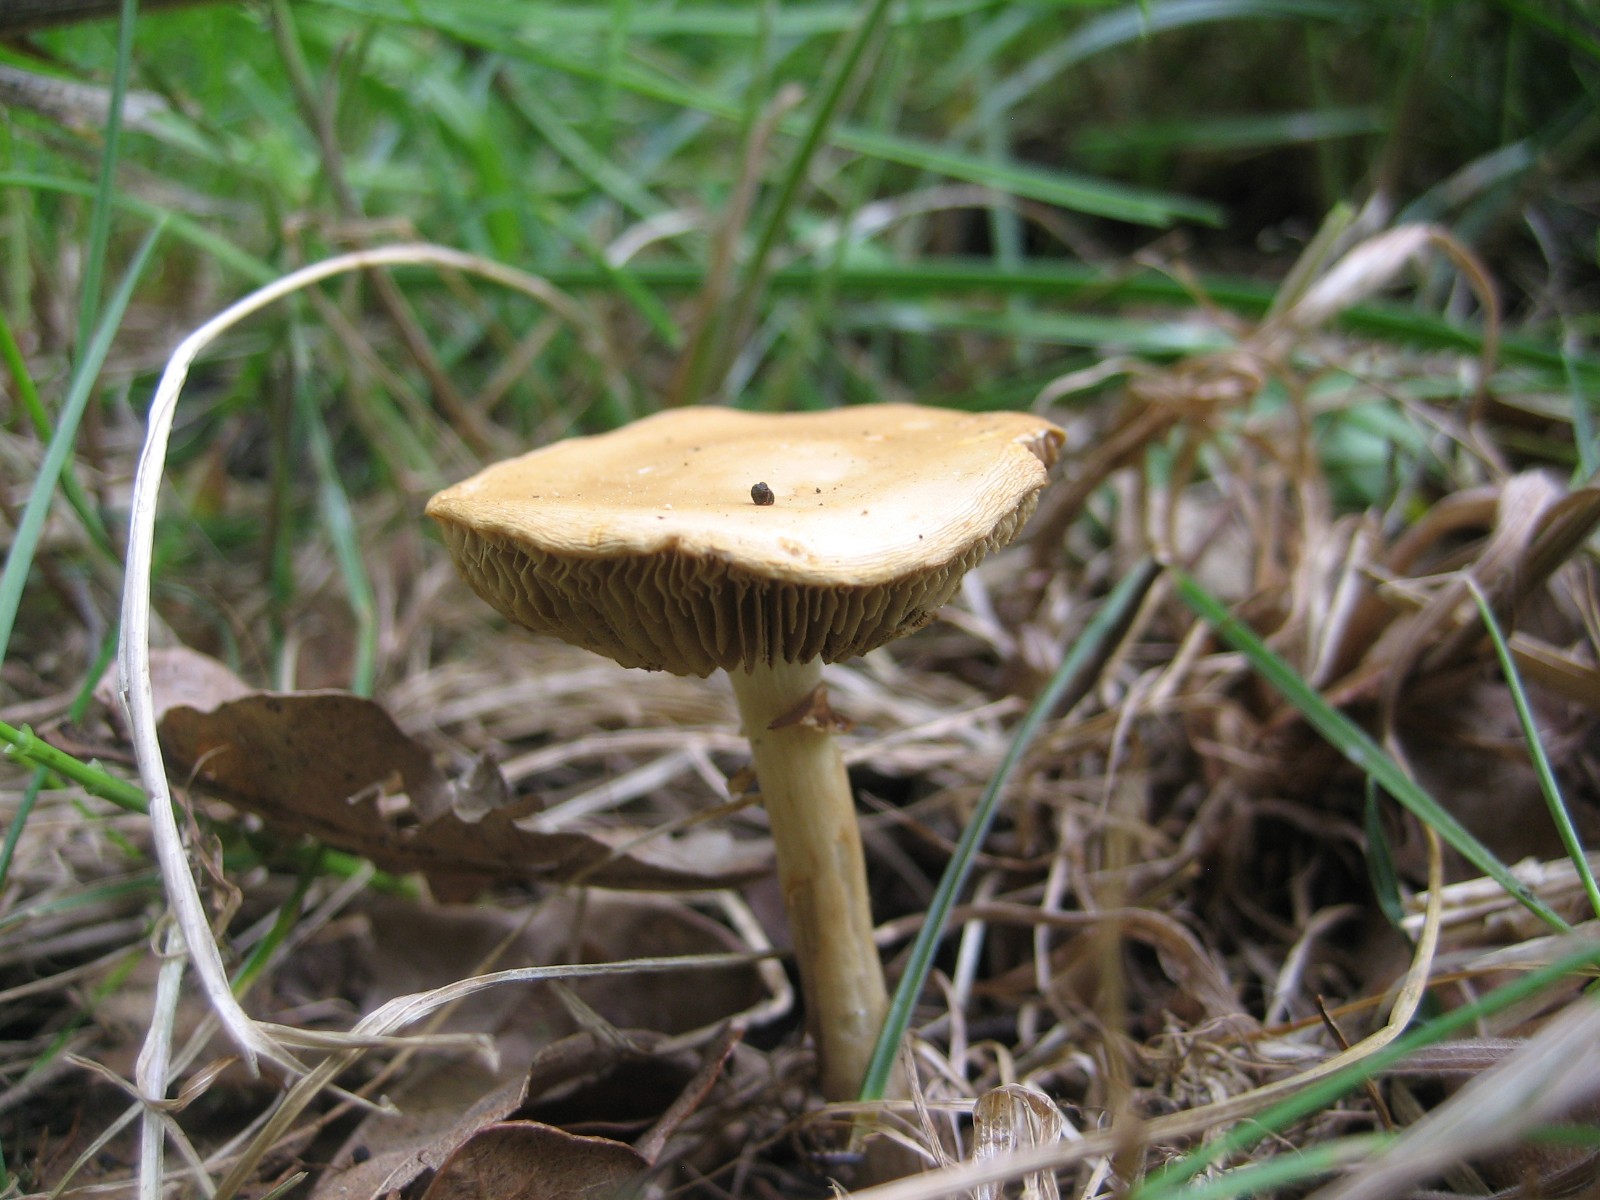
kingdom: Fungi
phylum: Basidiomycota
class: Agaricomycetes
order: Agaricales
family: Strophariaceae
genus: Agrocybe
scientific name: Agrocybe
